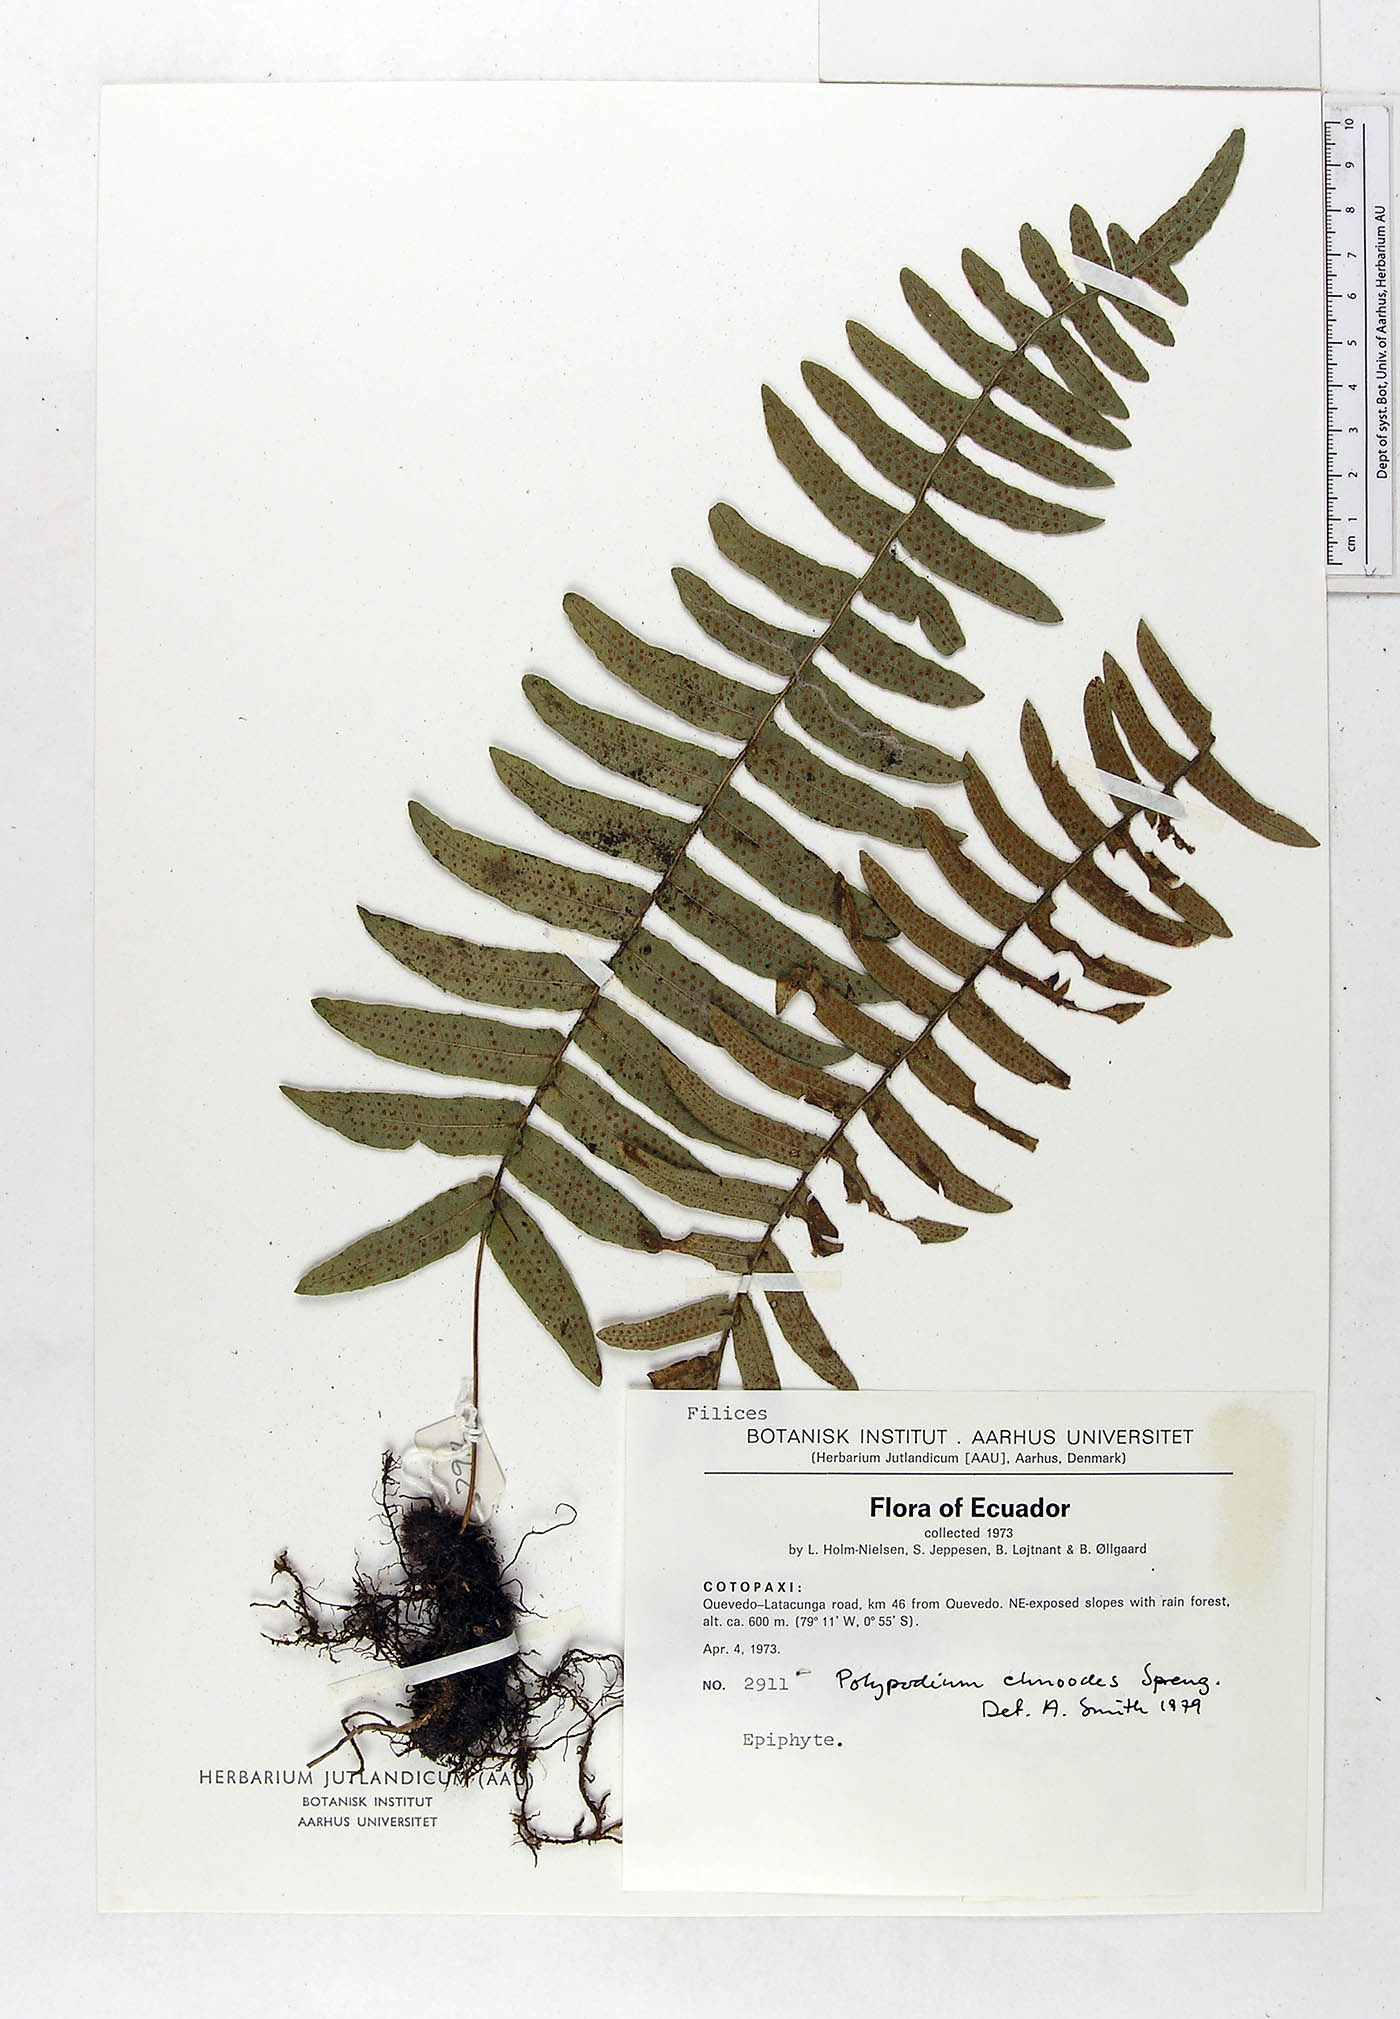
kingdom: Plantae
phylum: Tracheophyta
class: Polypodiopsida
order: Polypodiales
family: Polypodiaceae
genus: Serpocaulon
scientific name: Serpocaulon dissimile
